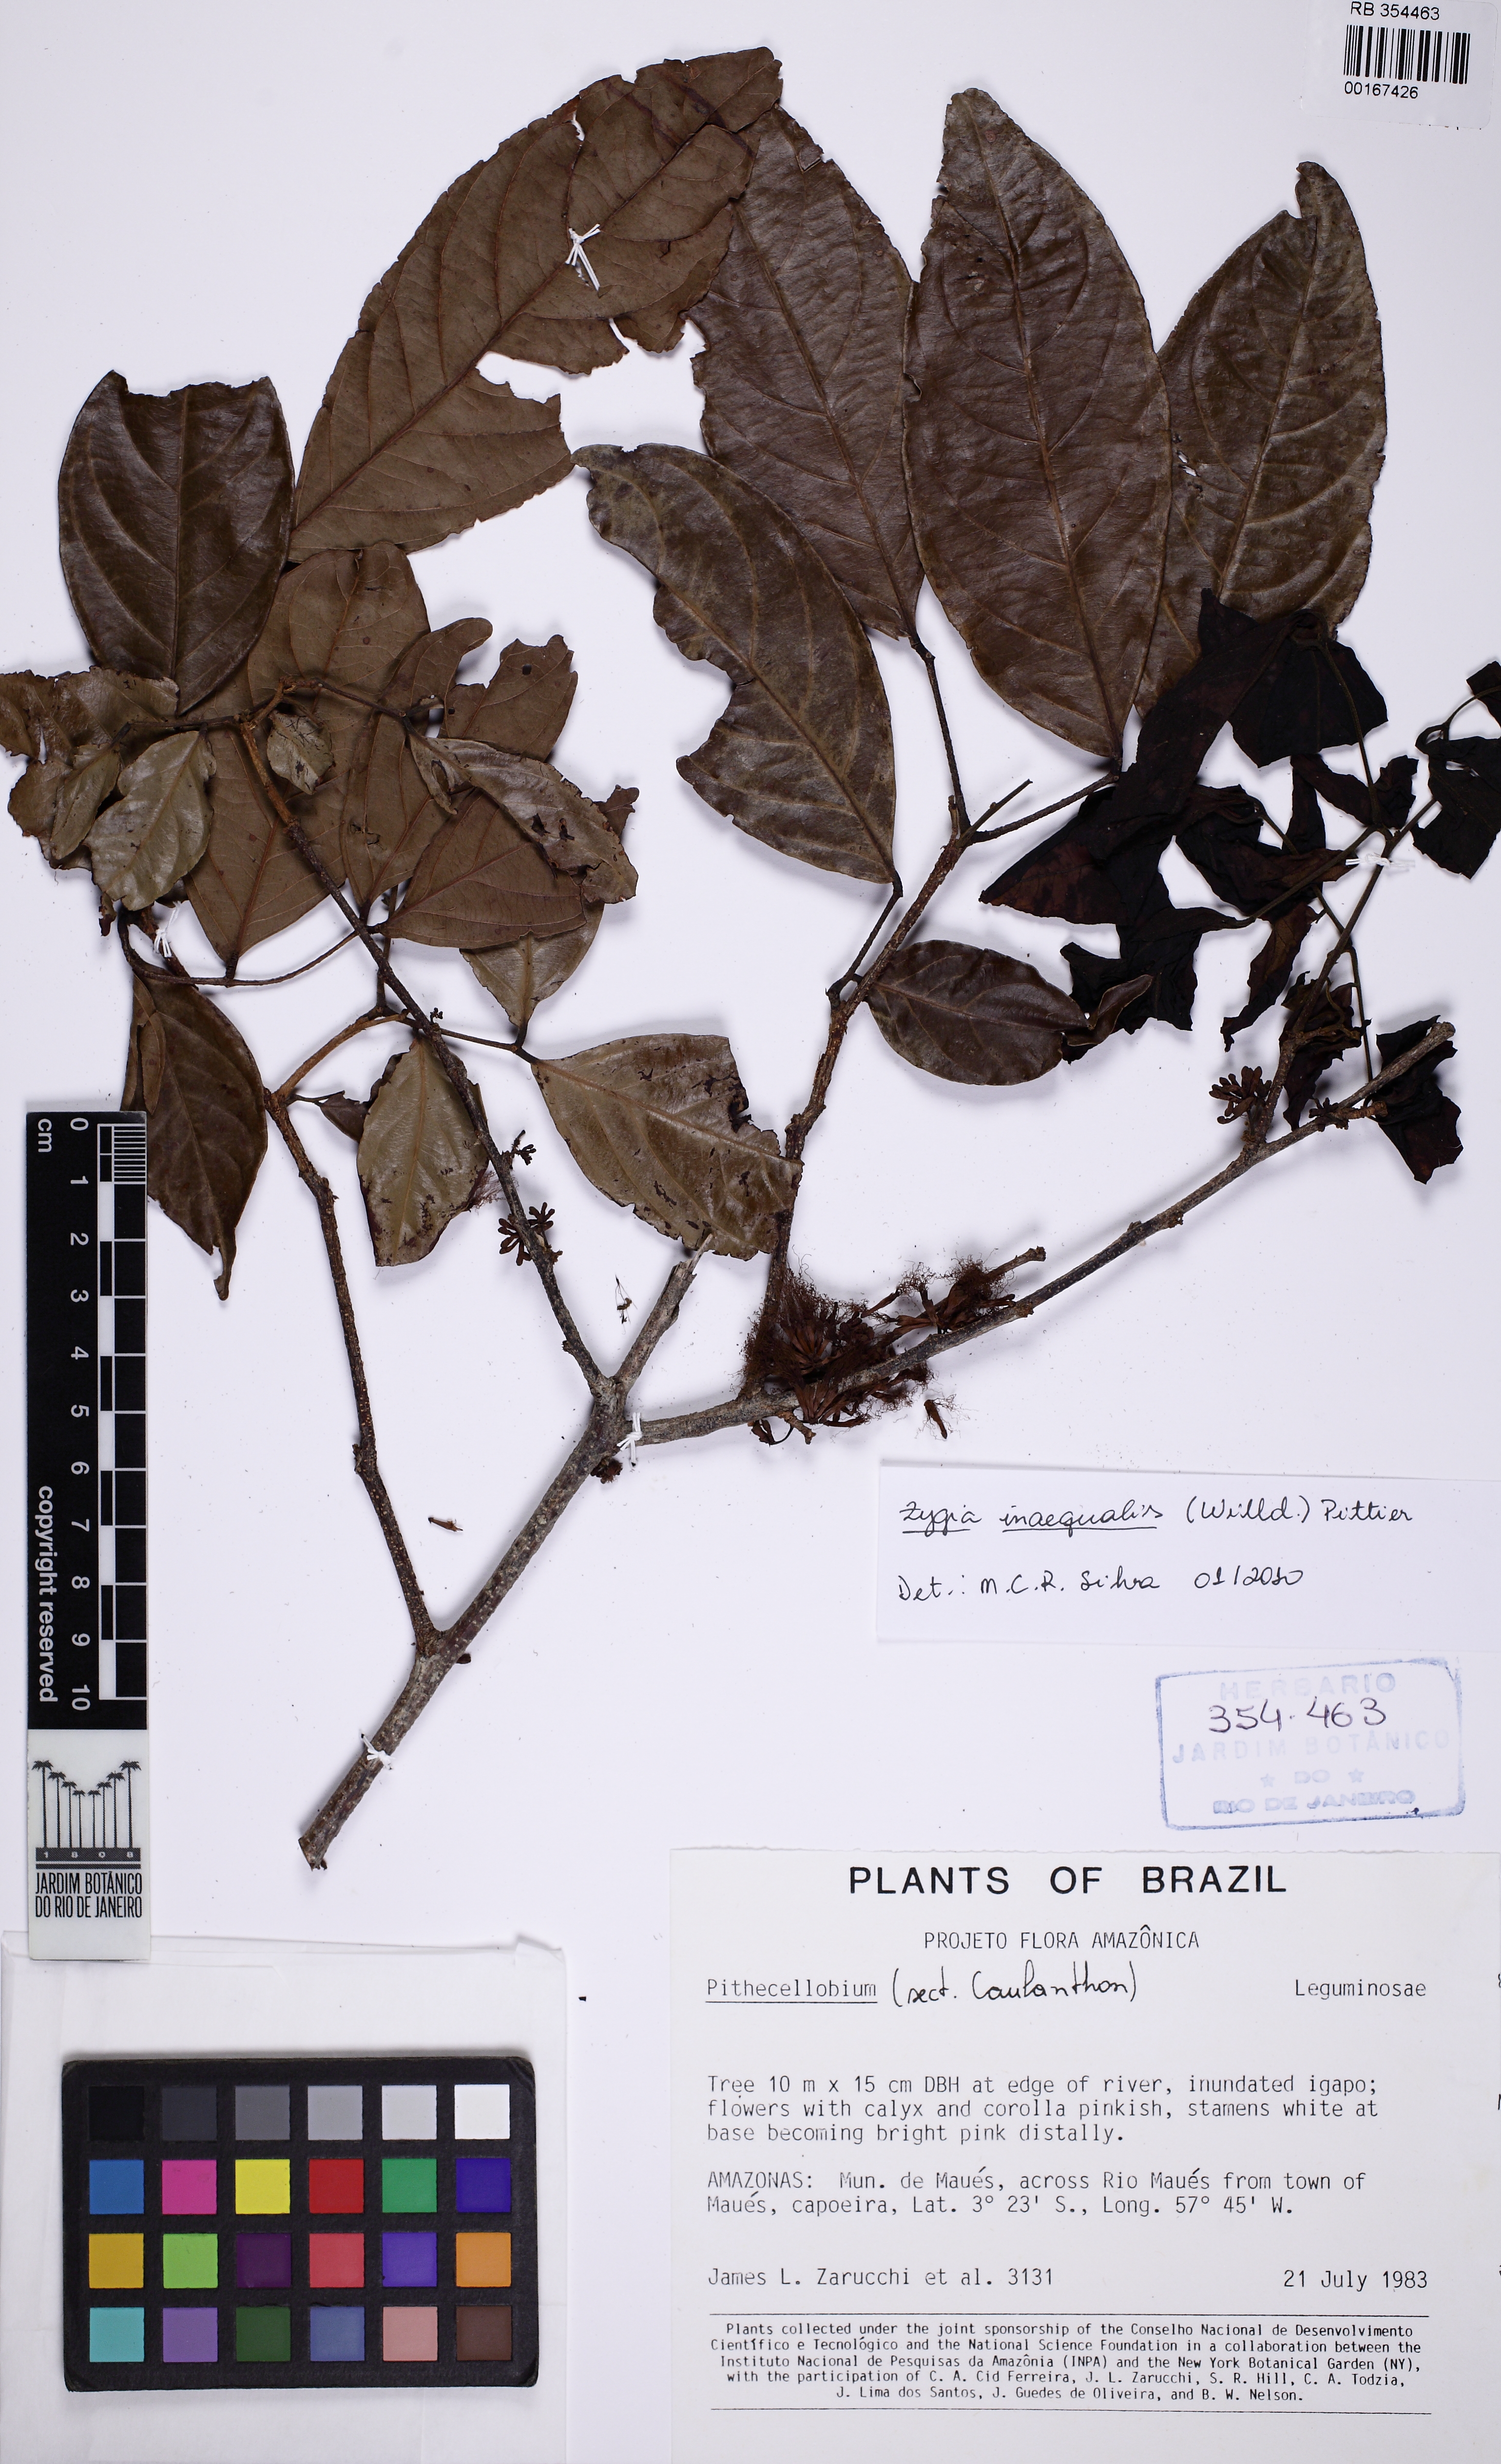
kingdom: Plantae
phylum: Tracheophyta
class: Magnoliopsida
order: Fabales
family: Fabaceae
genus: Zygia
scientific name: Zygia inaequalis
